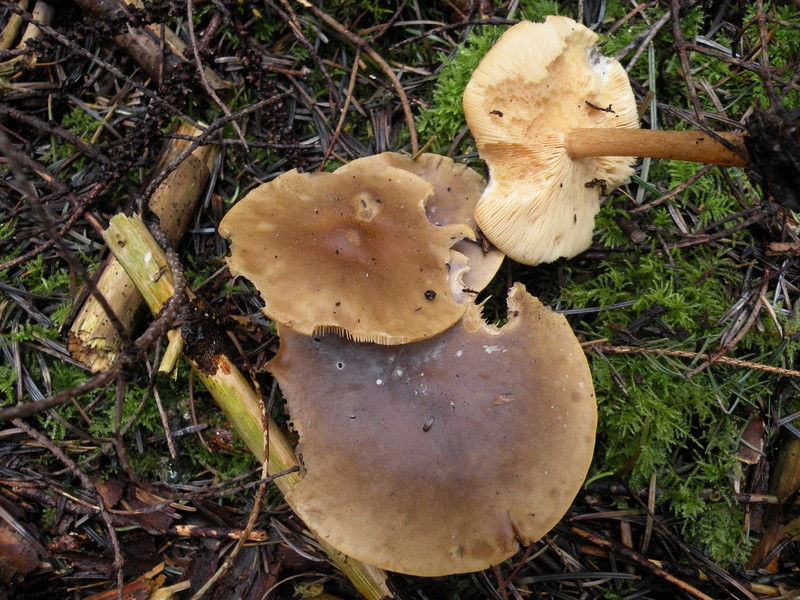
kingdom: Fungi
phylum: Basidiomycota
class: Agaricomycetes
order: Agaricales
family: Tricholomataceae
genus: Melanoleuca
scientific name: Melanoleuca cognata
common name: gyldengrå munkehat
